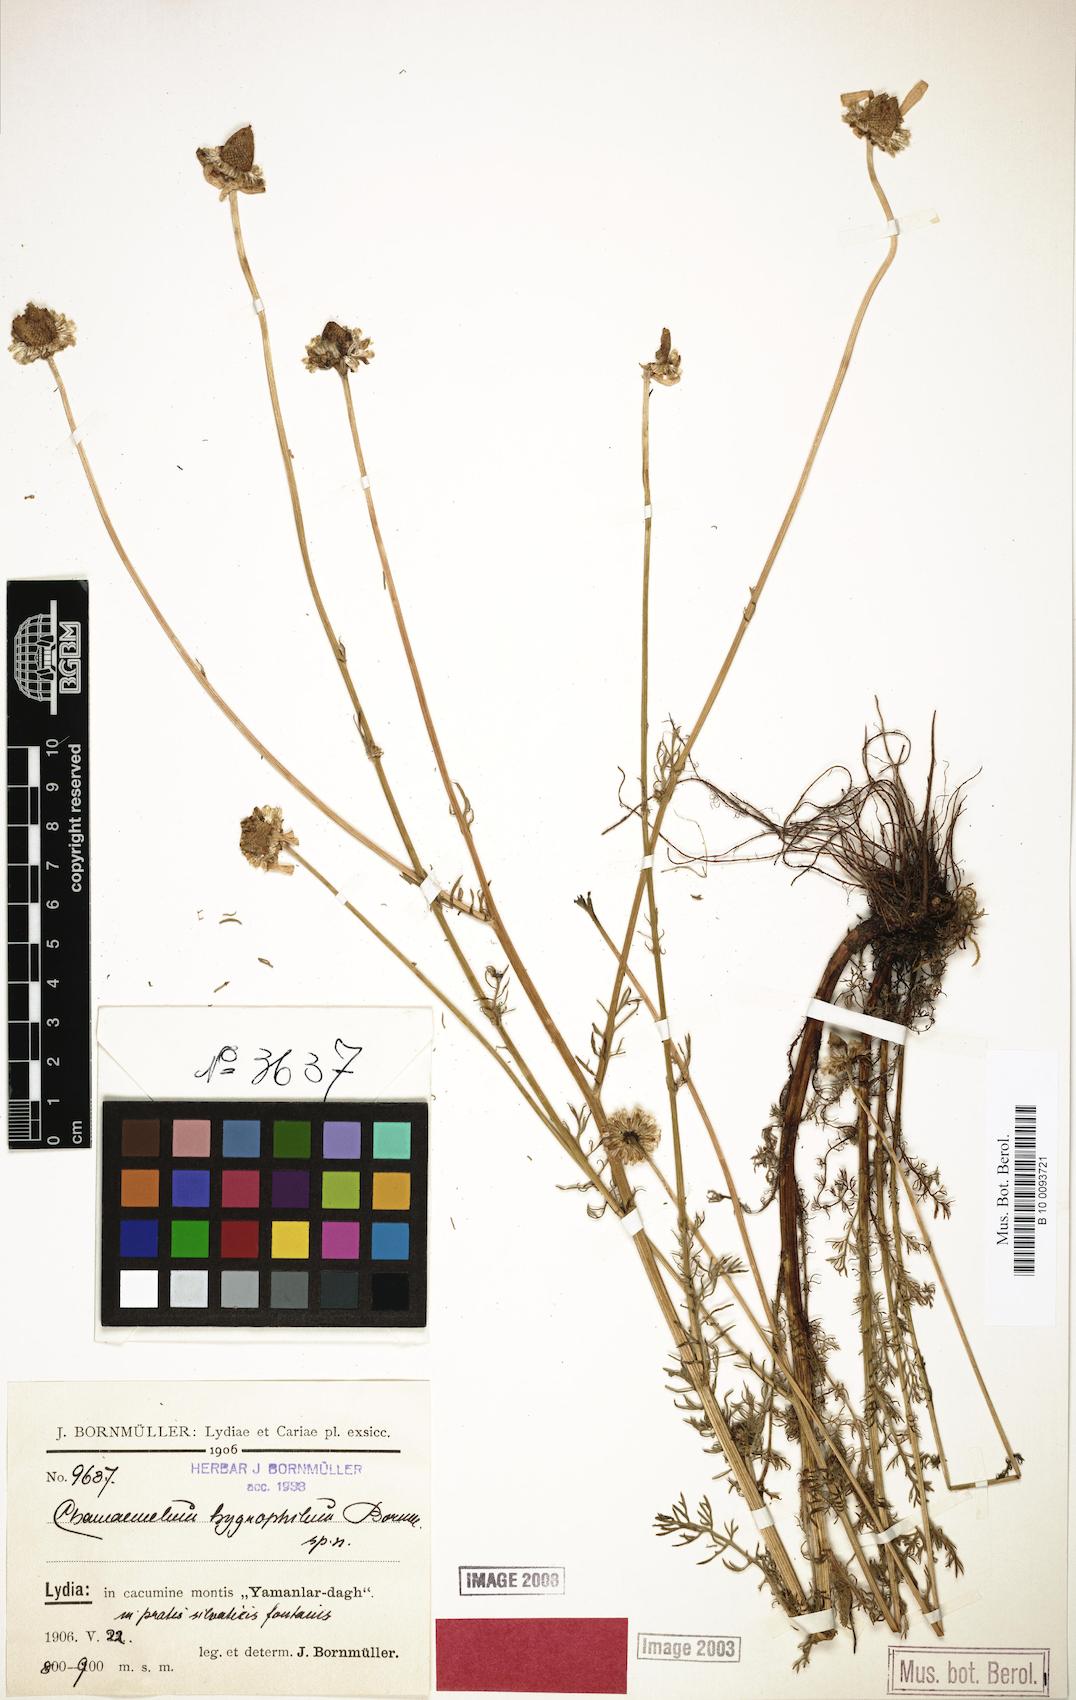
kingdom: Plantae
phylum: Tracheophyta
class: Magnoliopsida
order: Asterales
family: Asteraceae
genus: Tripleurospermum
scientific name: Tripleurospermum hygrophilum
